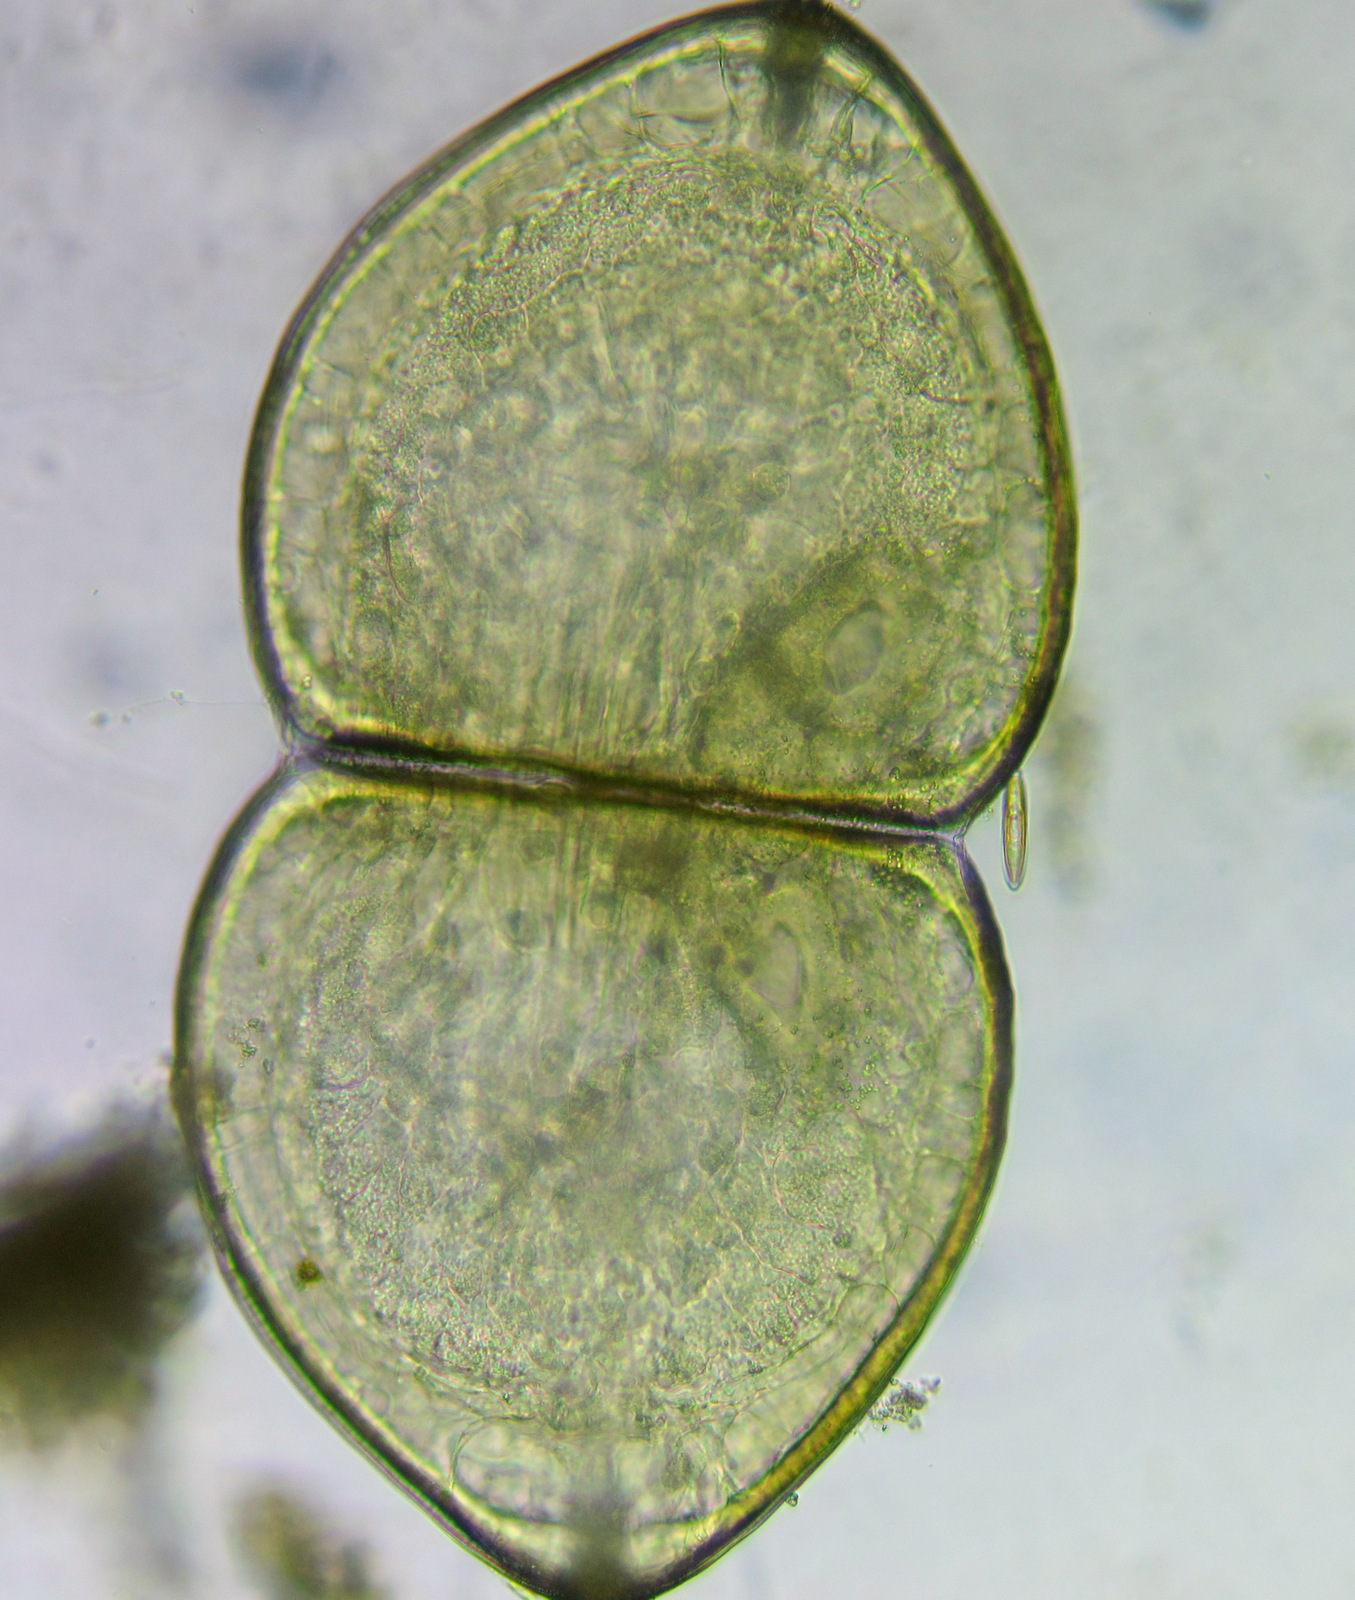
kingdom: Animalia
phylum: Mollusca
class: Bivalvia
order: Unionida
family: Unionidae
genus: Anodonta
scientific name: Anodonta cygnea
